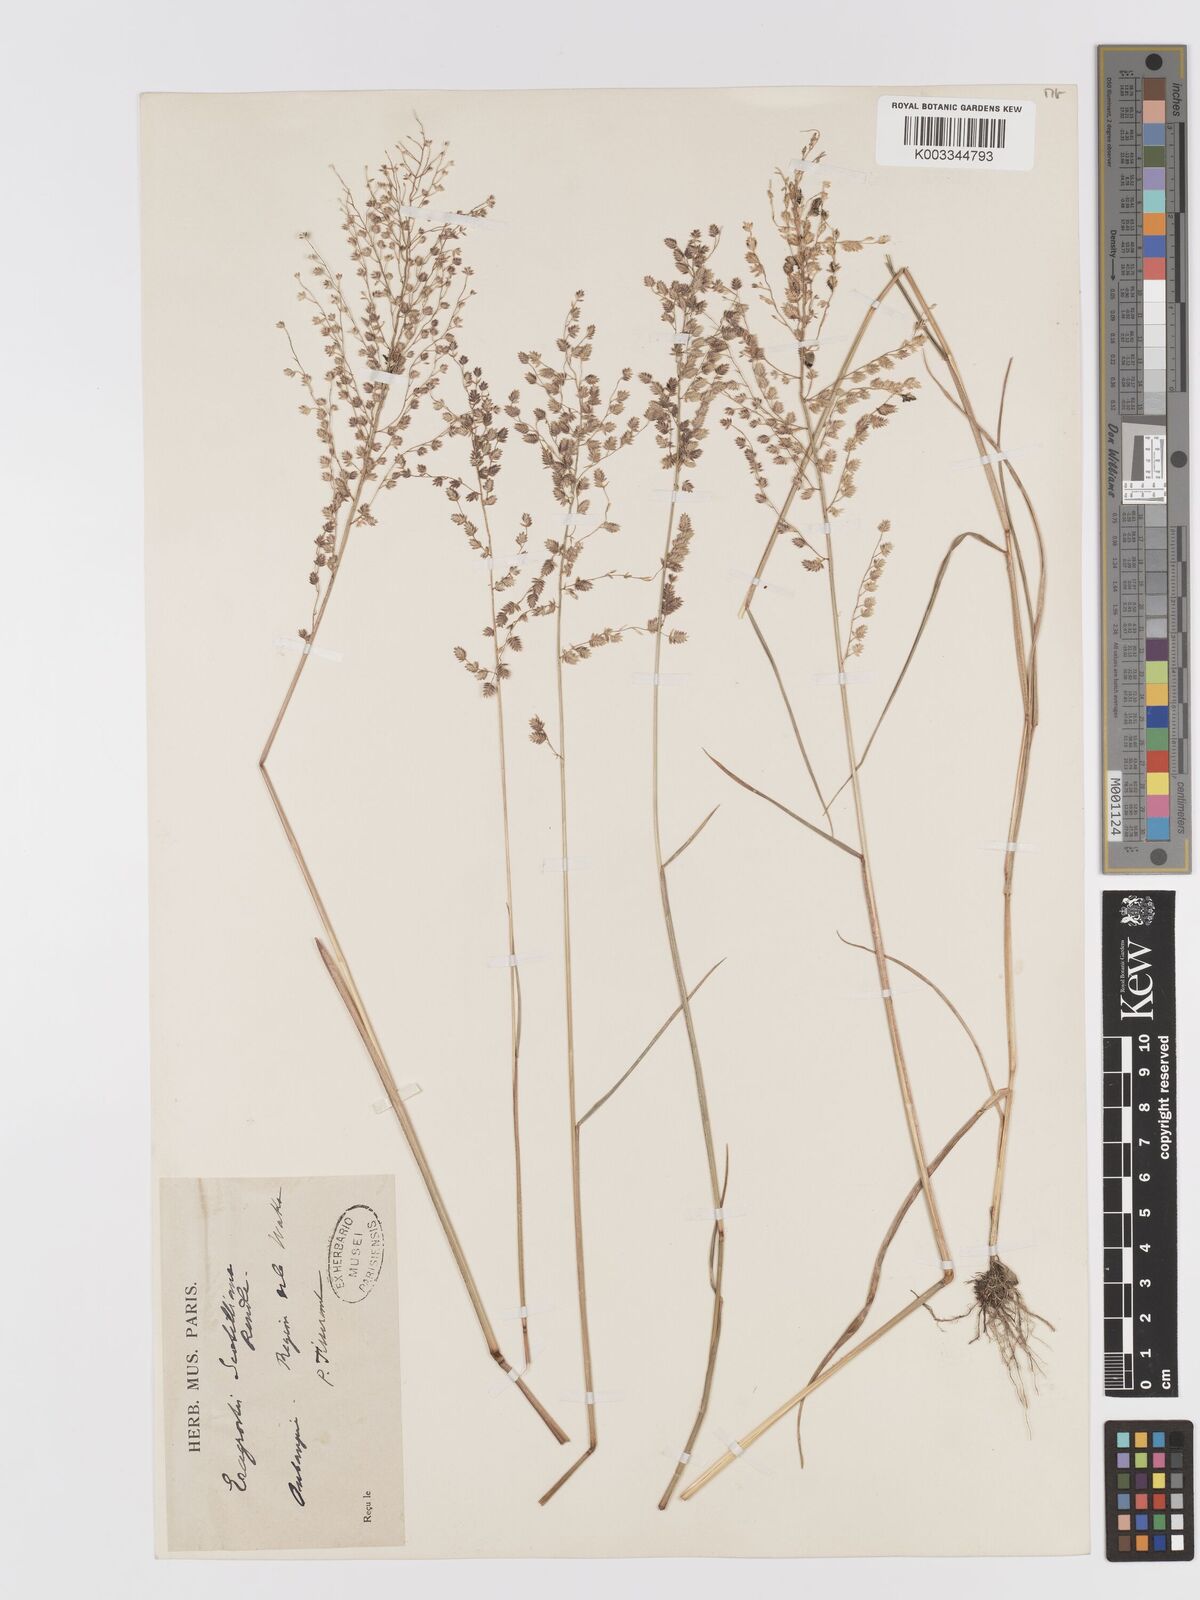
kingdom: Plantae
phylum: Tracheophyta
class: Liliopsida
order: Poales
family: Poaceae
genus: Eragrostis
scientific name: Eragrostis scotelliana
